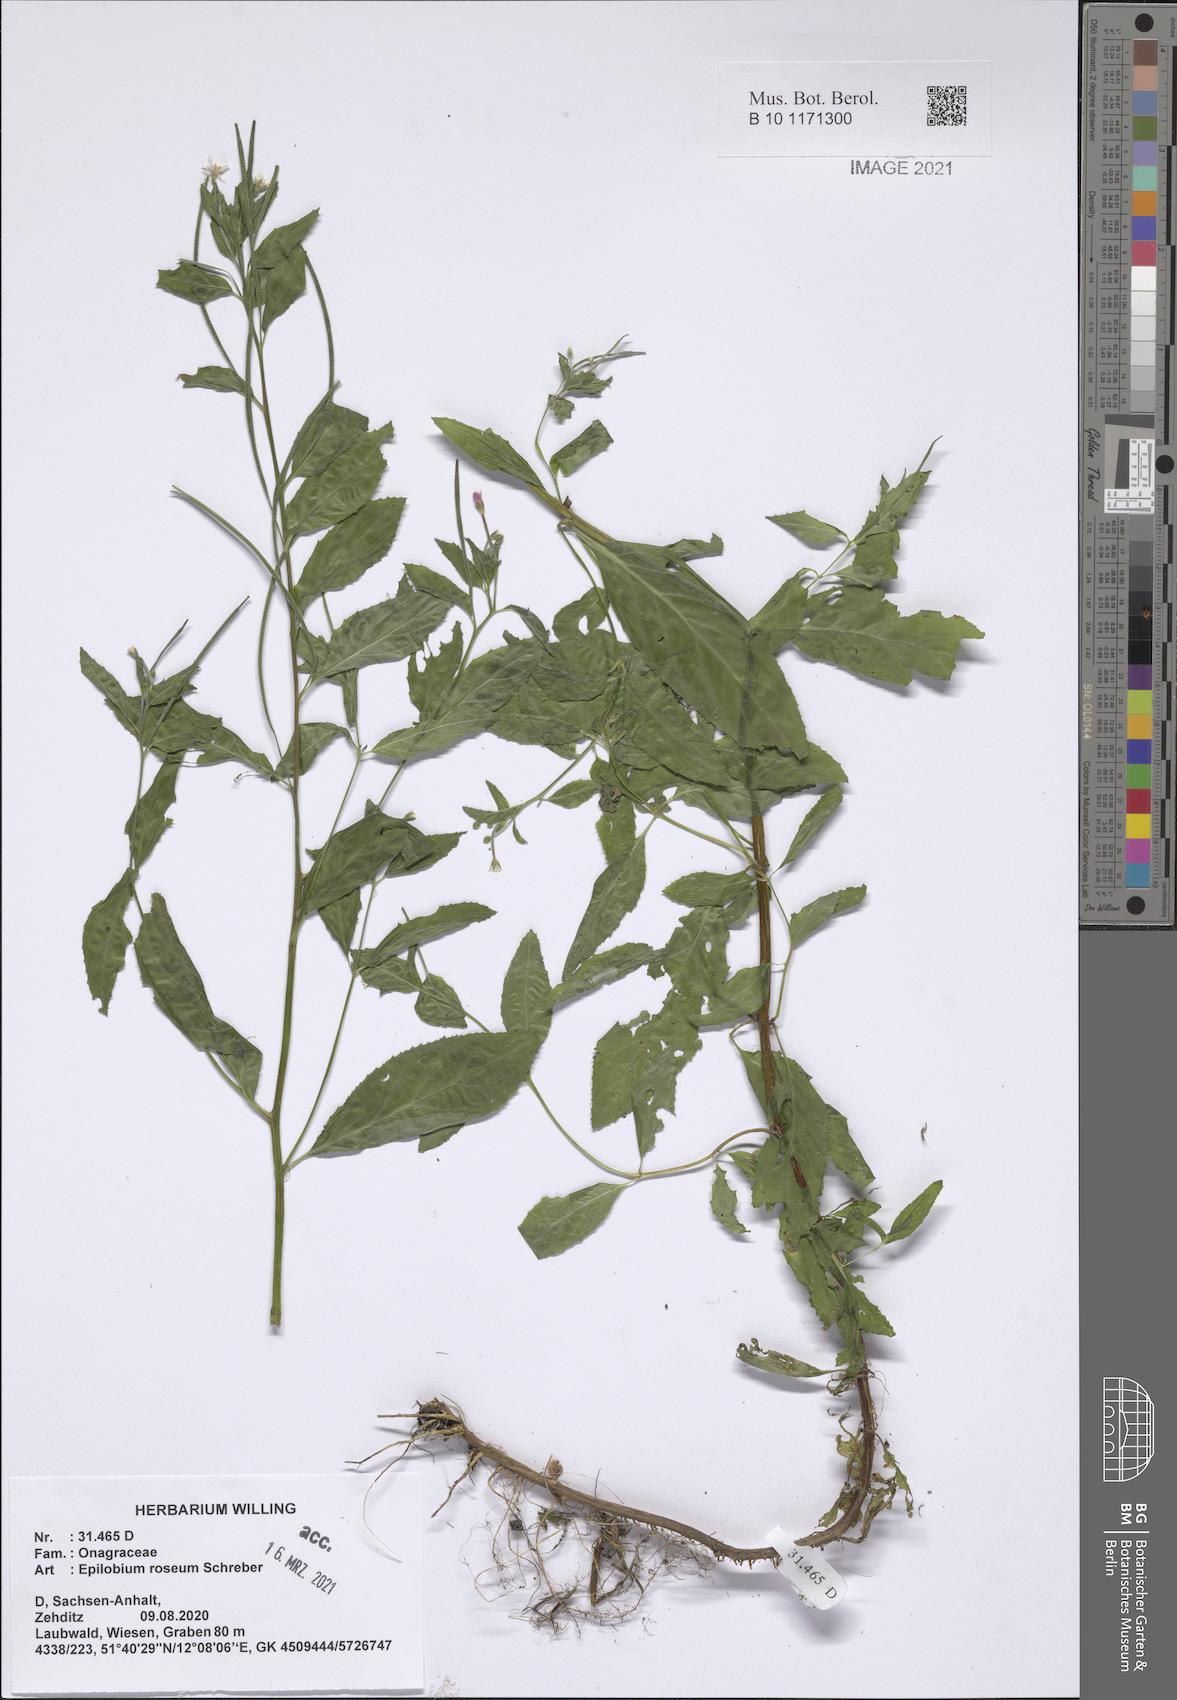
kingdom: Plantae
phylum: Tracheophyta
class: Magnoliopsida
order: Myrtales
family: Onagraceae
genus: Epilobium
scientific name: Epilobium roseum
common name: Pale willowherb
